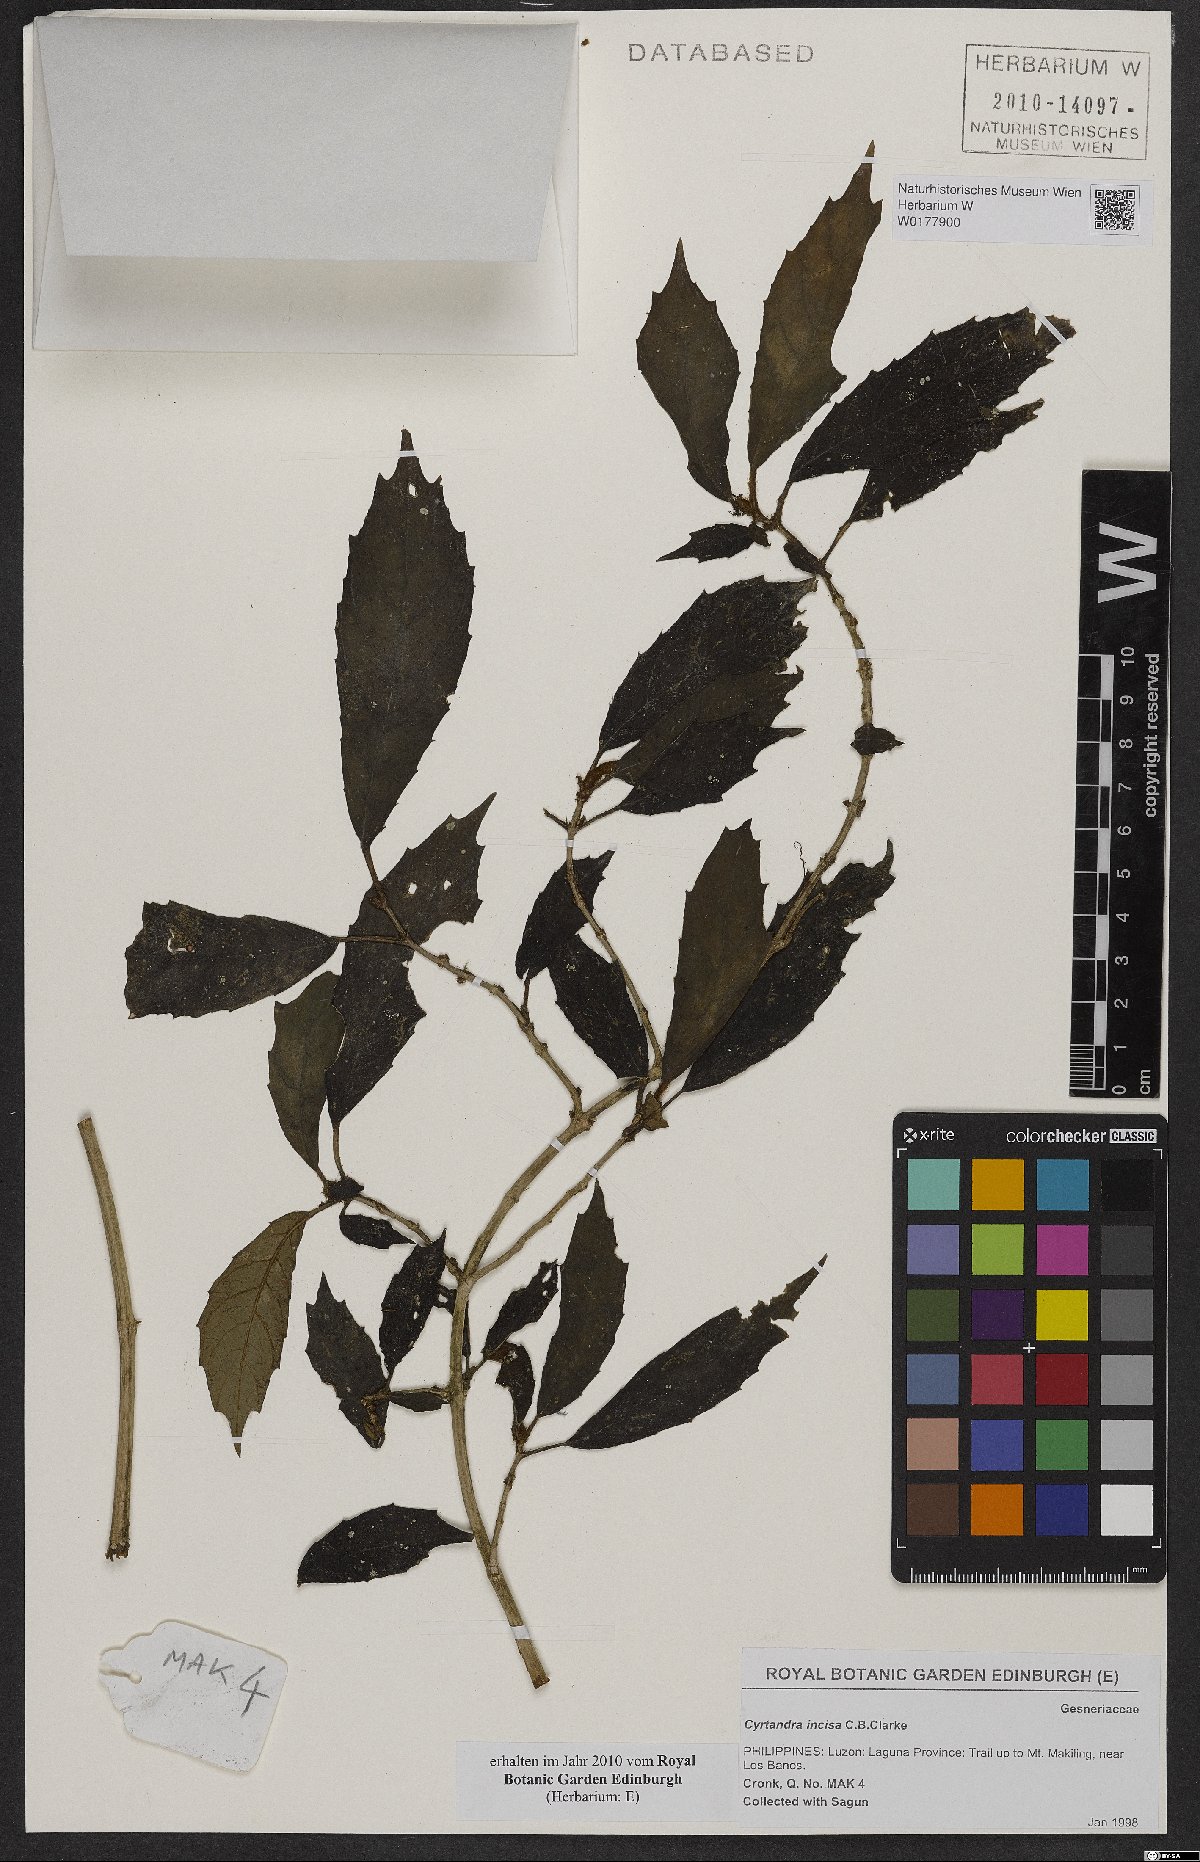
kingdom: Plantae
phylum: Tracheophyta
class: Magnoliopsida
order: Lamiales
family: Gesneriaceae
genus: Cyrtandra
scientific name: Cyrtandra incisa
